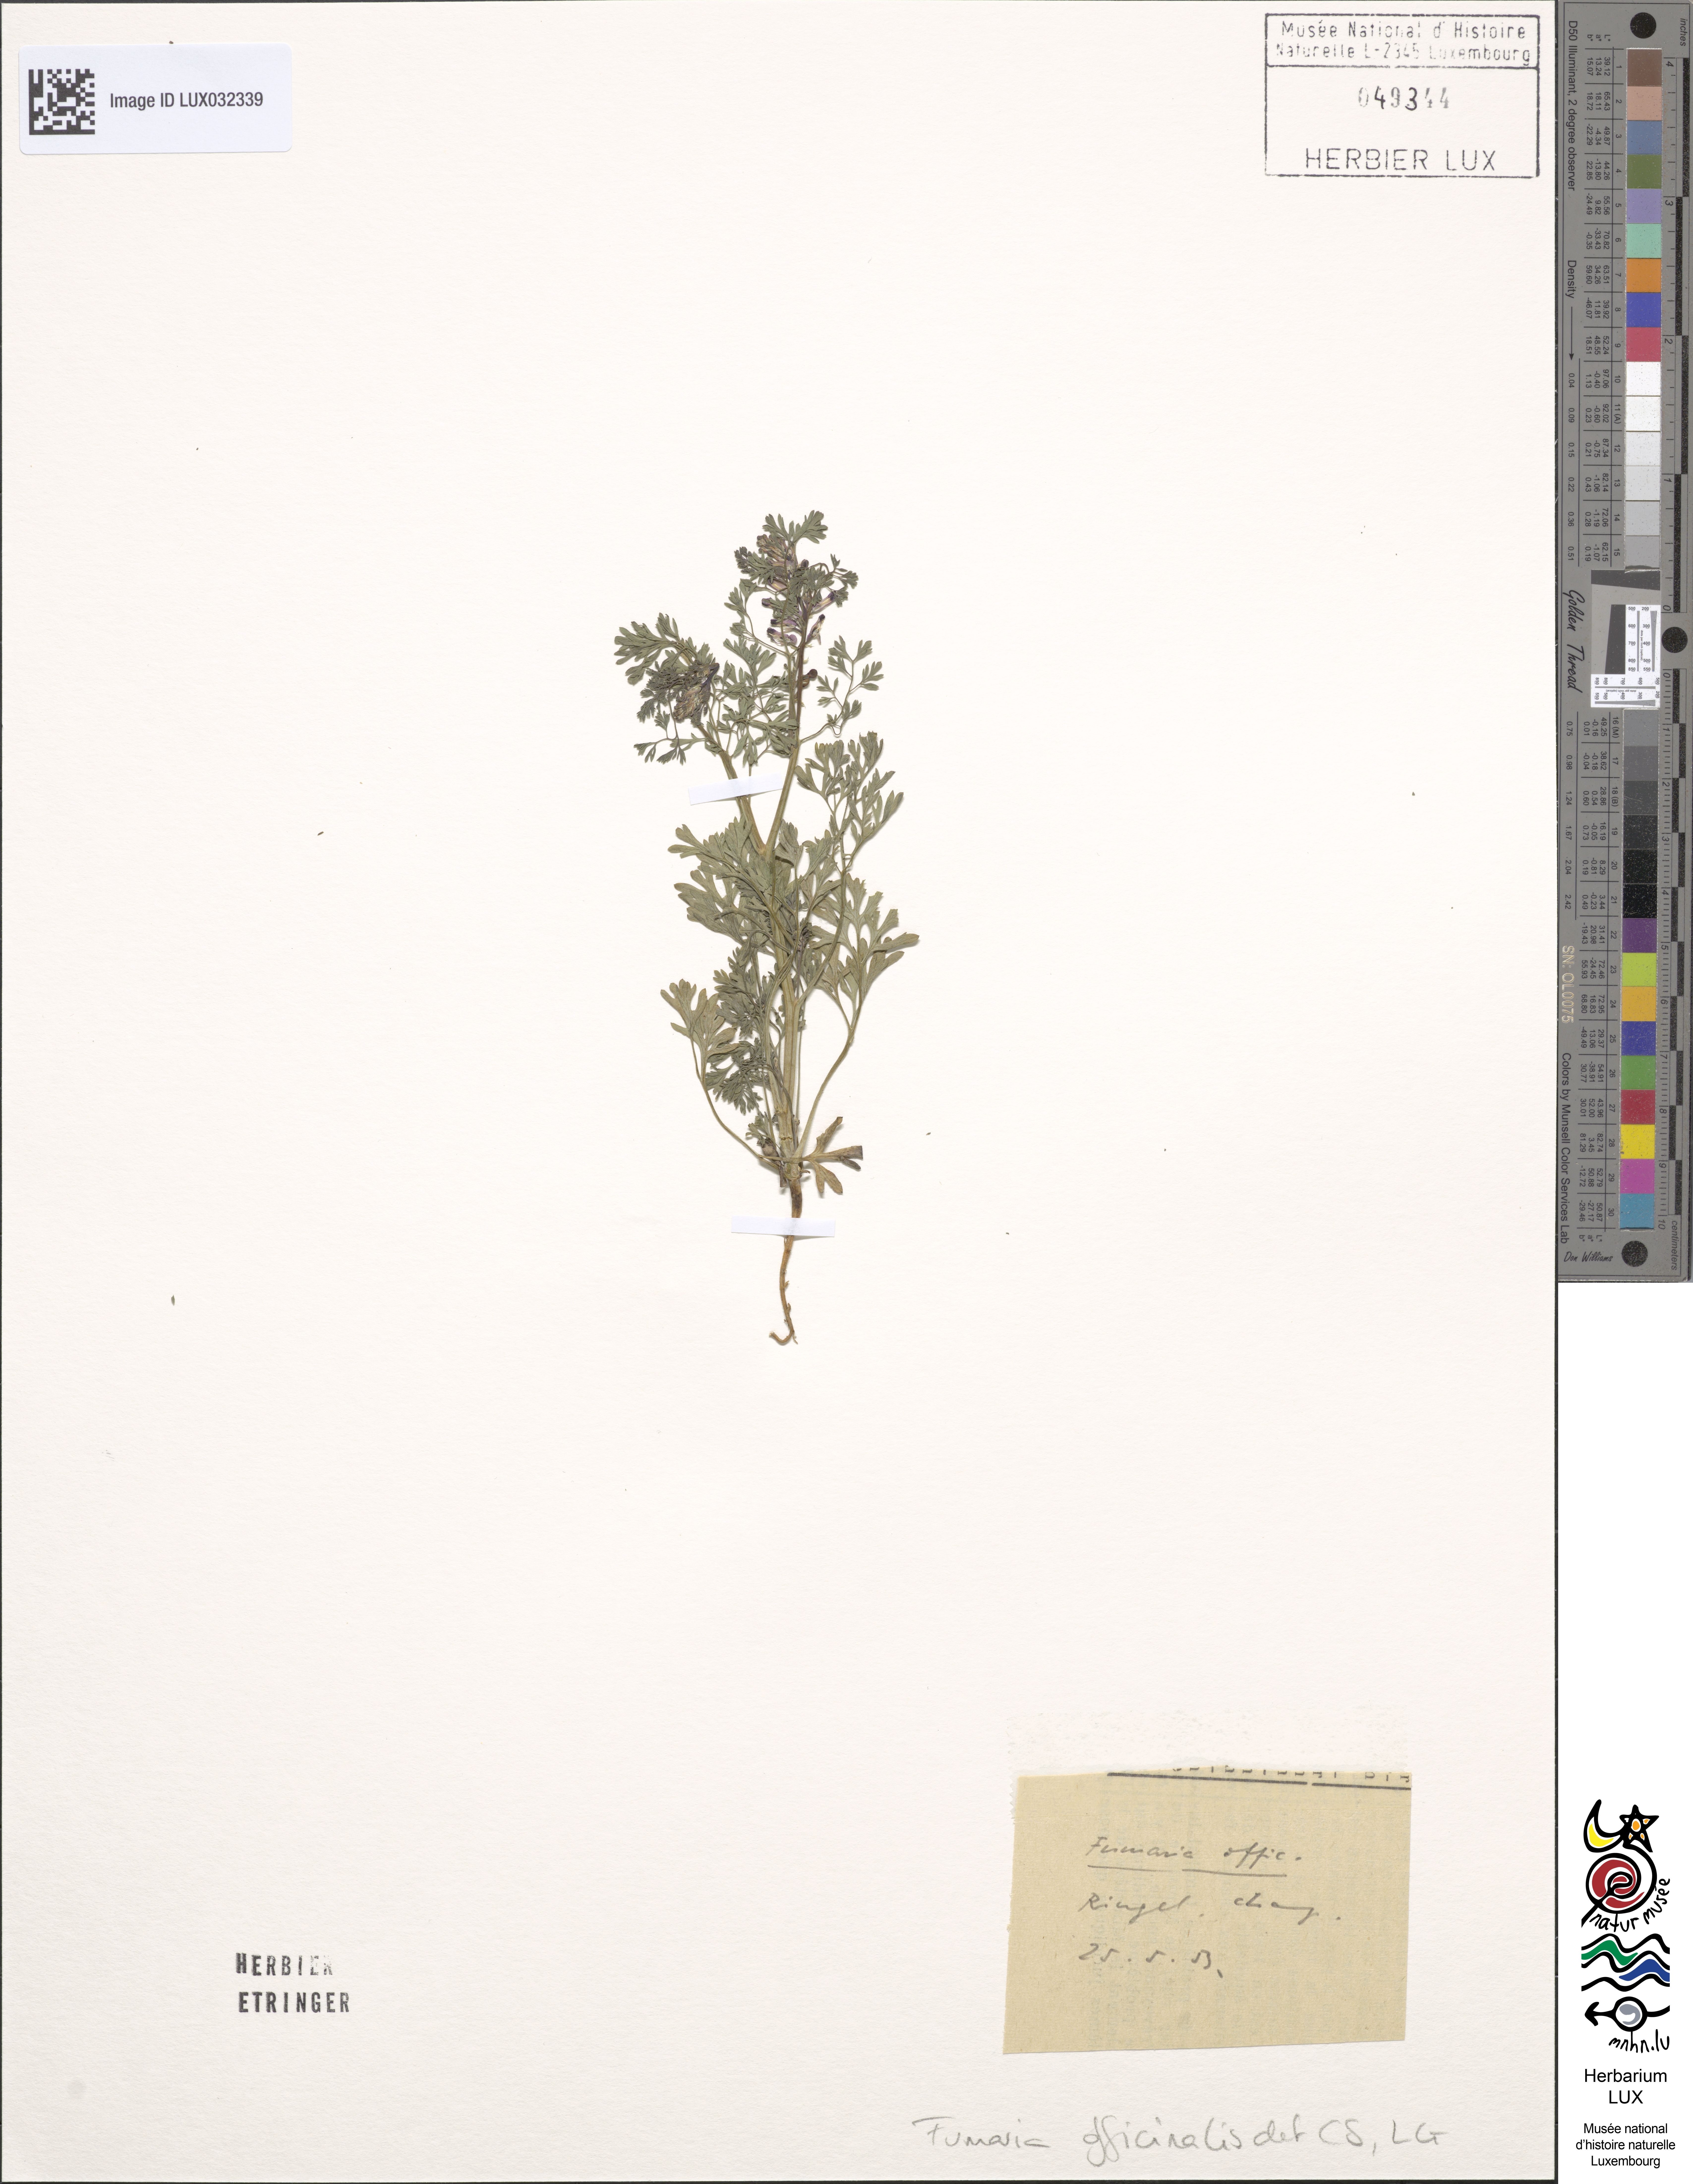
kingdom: Plantae
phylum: Tracheophyta
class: Magnoliopsida
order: Ranunculales
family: Papaveraceae
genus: Fumaria
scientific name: Fumaria officinalis
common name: Common fumitory
